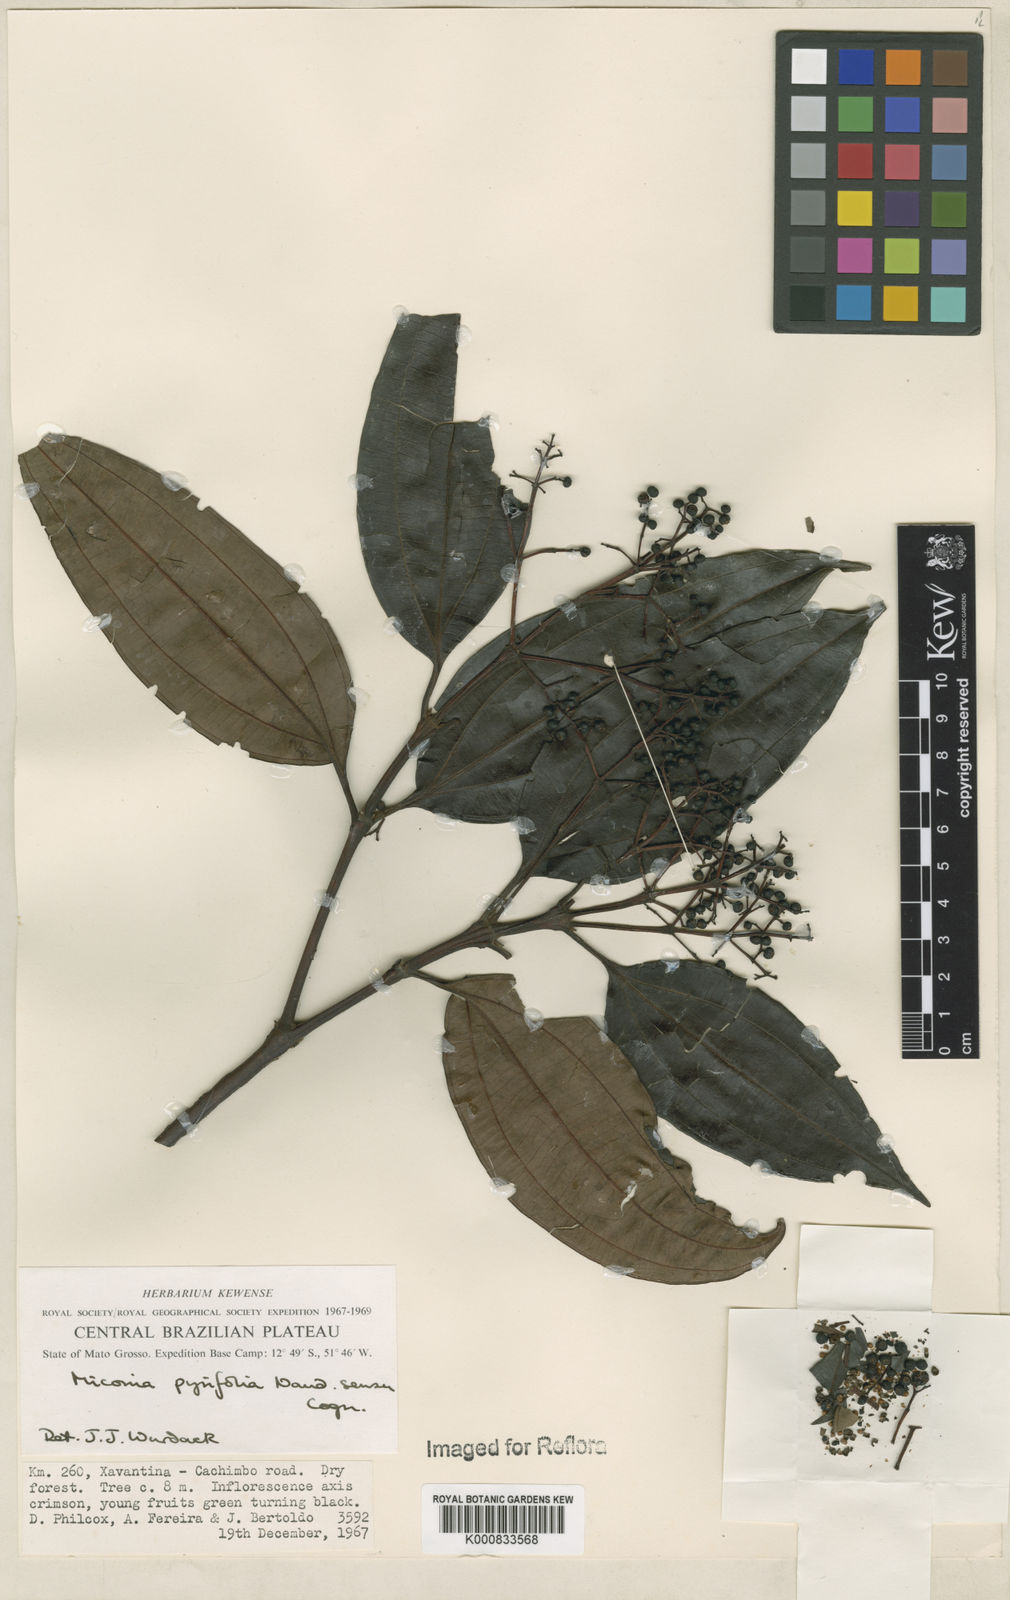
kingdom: Plantae
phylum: Tracheophyta
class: Magnoliopsida
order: Myrtales
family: Melastomataceae
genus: Miconia
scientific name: Miconia pyrifolia
